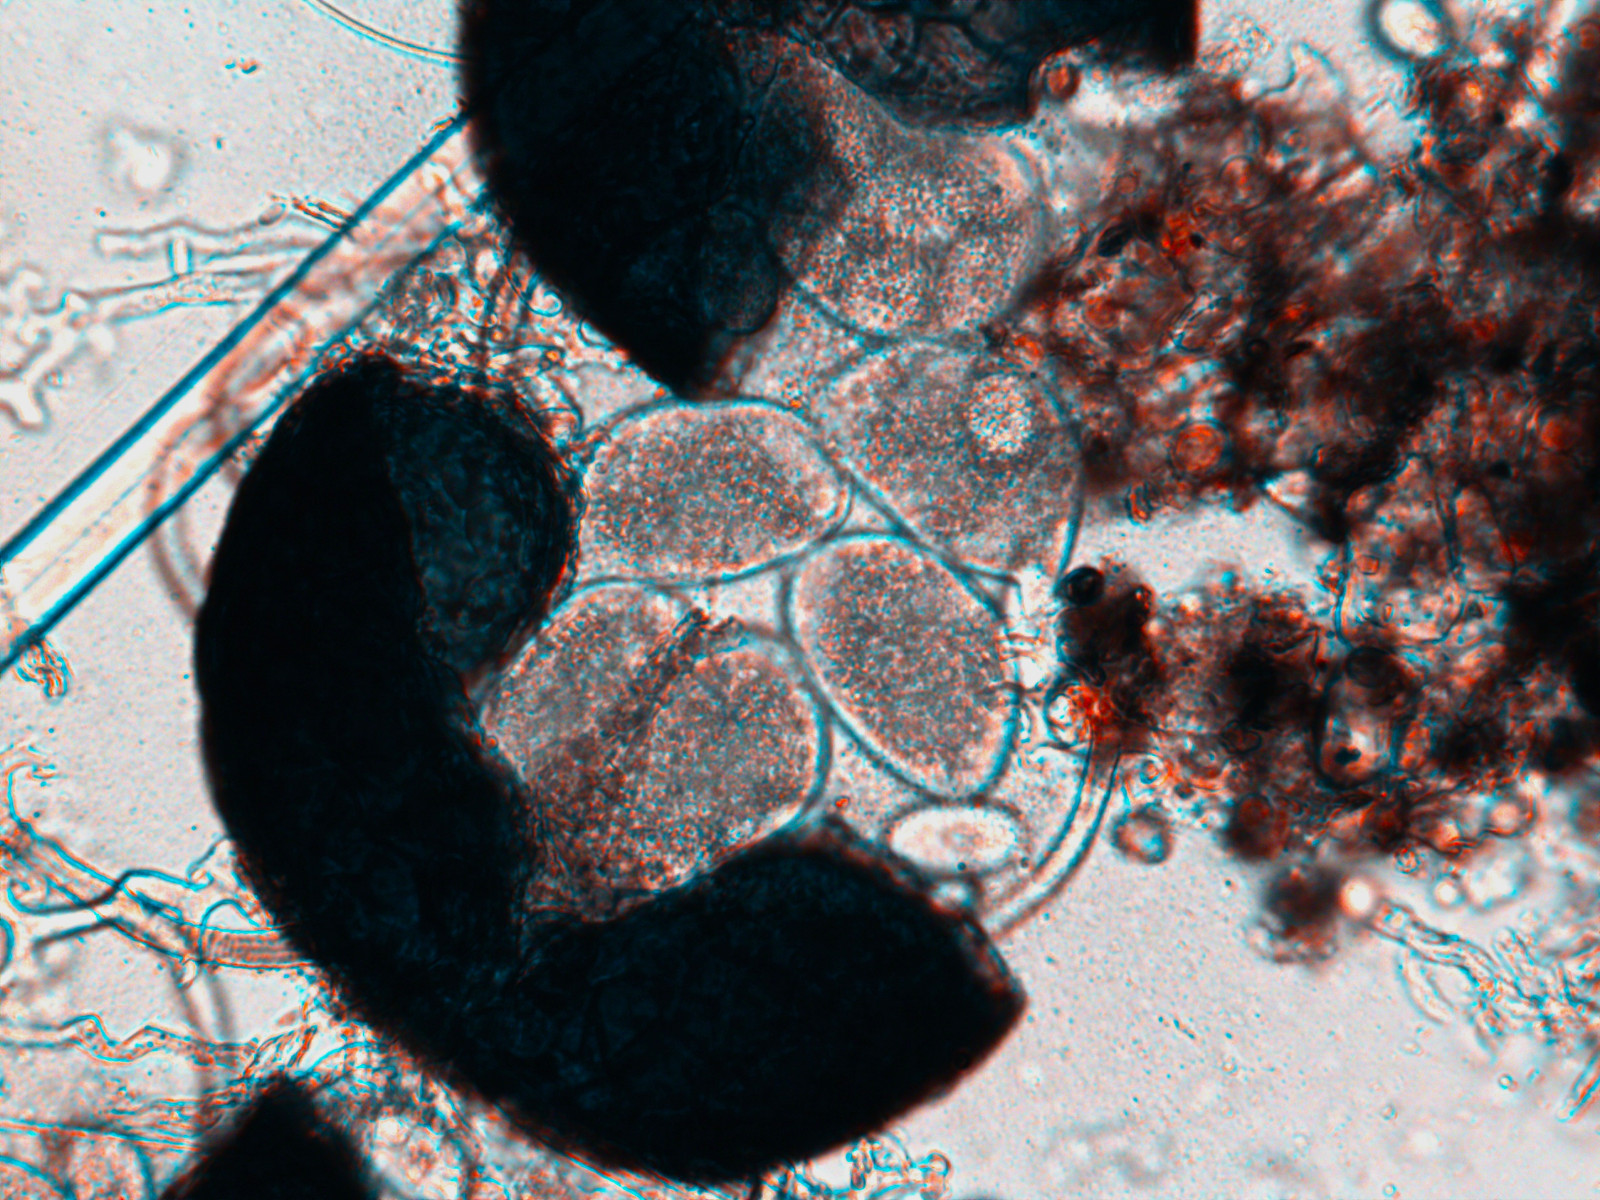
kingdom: Fungi
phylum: Ascomycota
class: Leotiomycetes
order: Helotiales
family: Erysiphaceae
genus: Erysiphe
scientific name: Erysiphe syringae-japonicae
